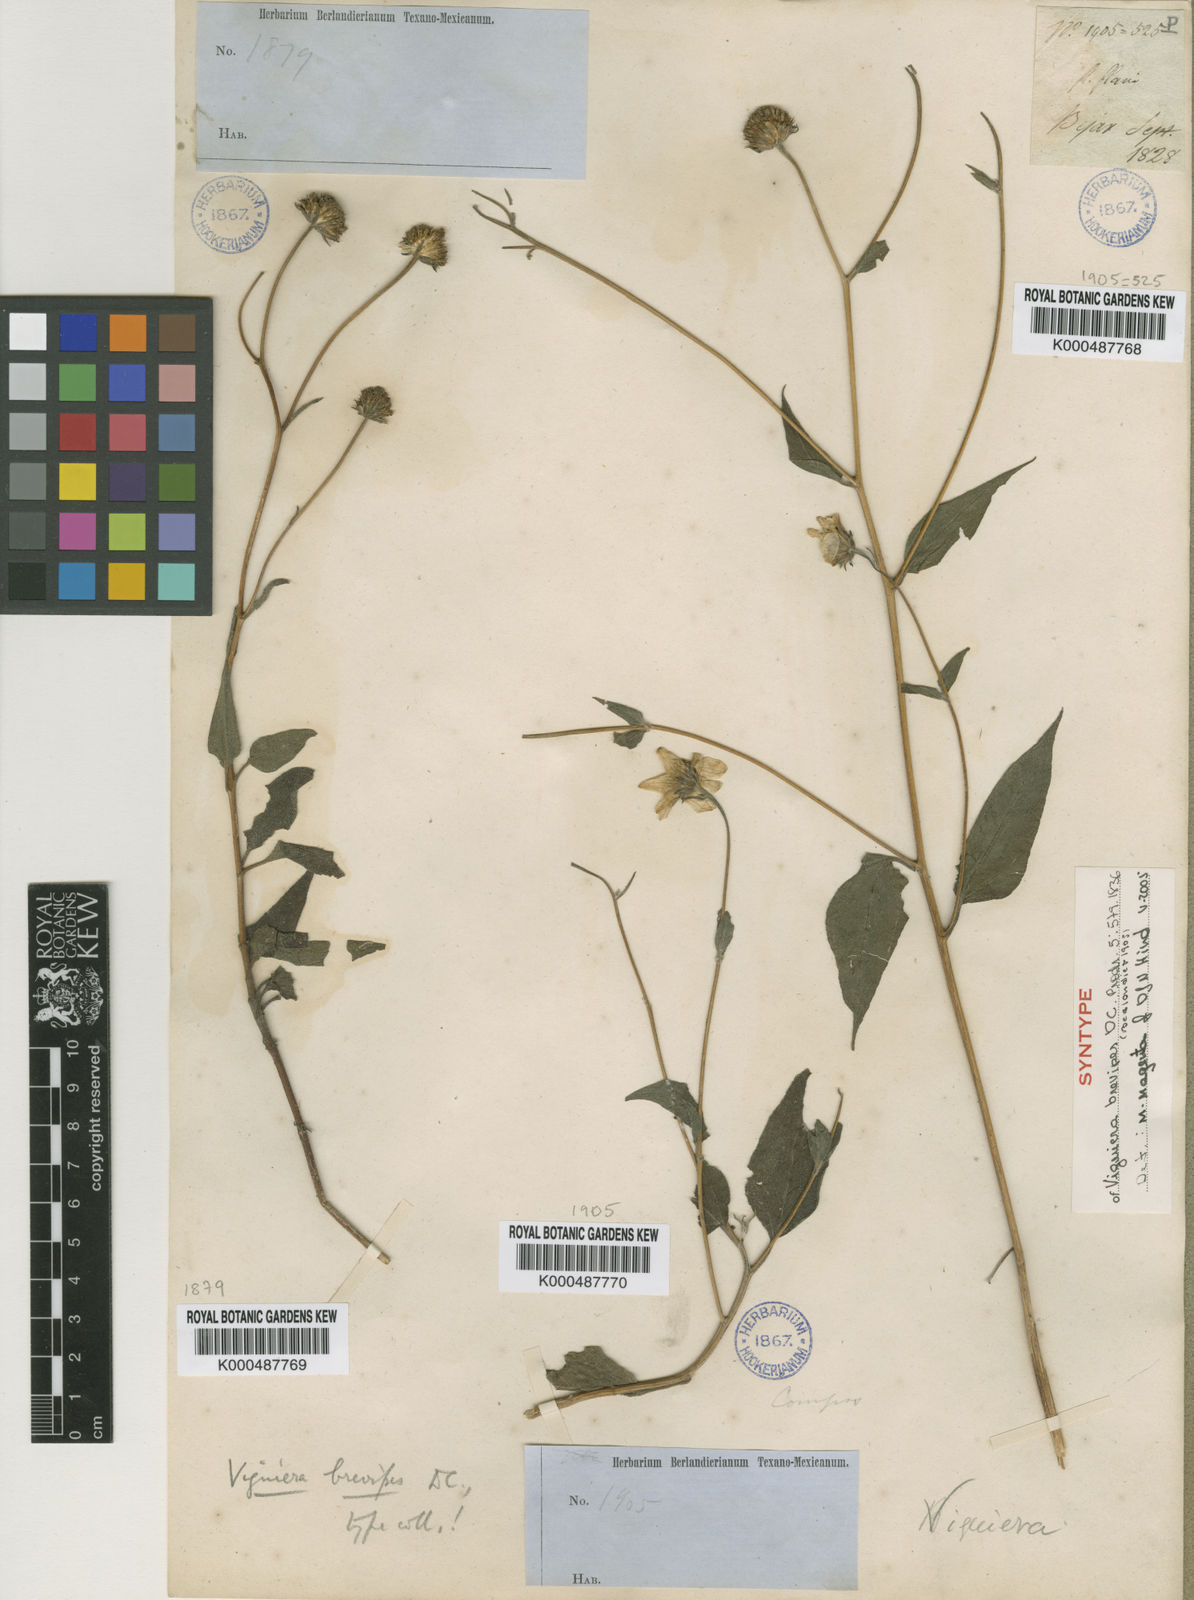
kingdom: Plantae
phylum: Tracheophyta
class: Magnoliopsida
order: Asterales
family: Asteraceae
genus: Viguiera
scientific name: Viguiera dentata
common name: Toothleaf
